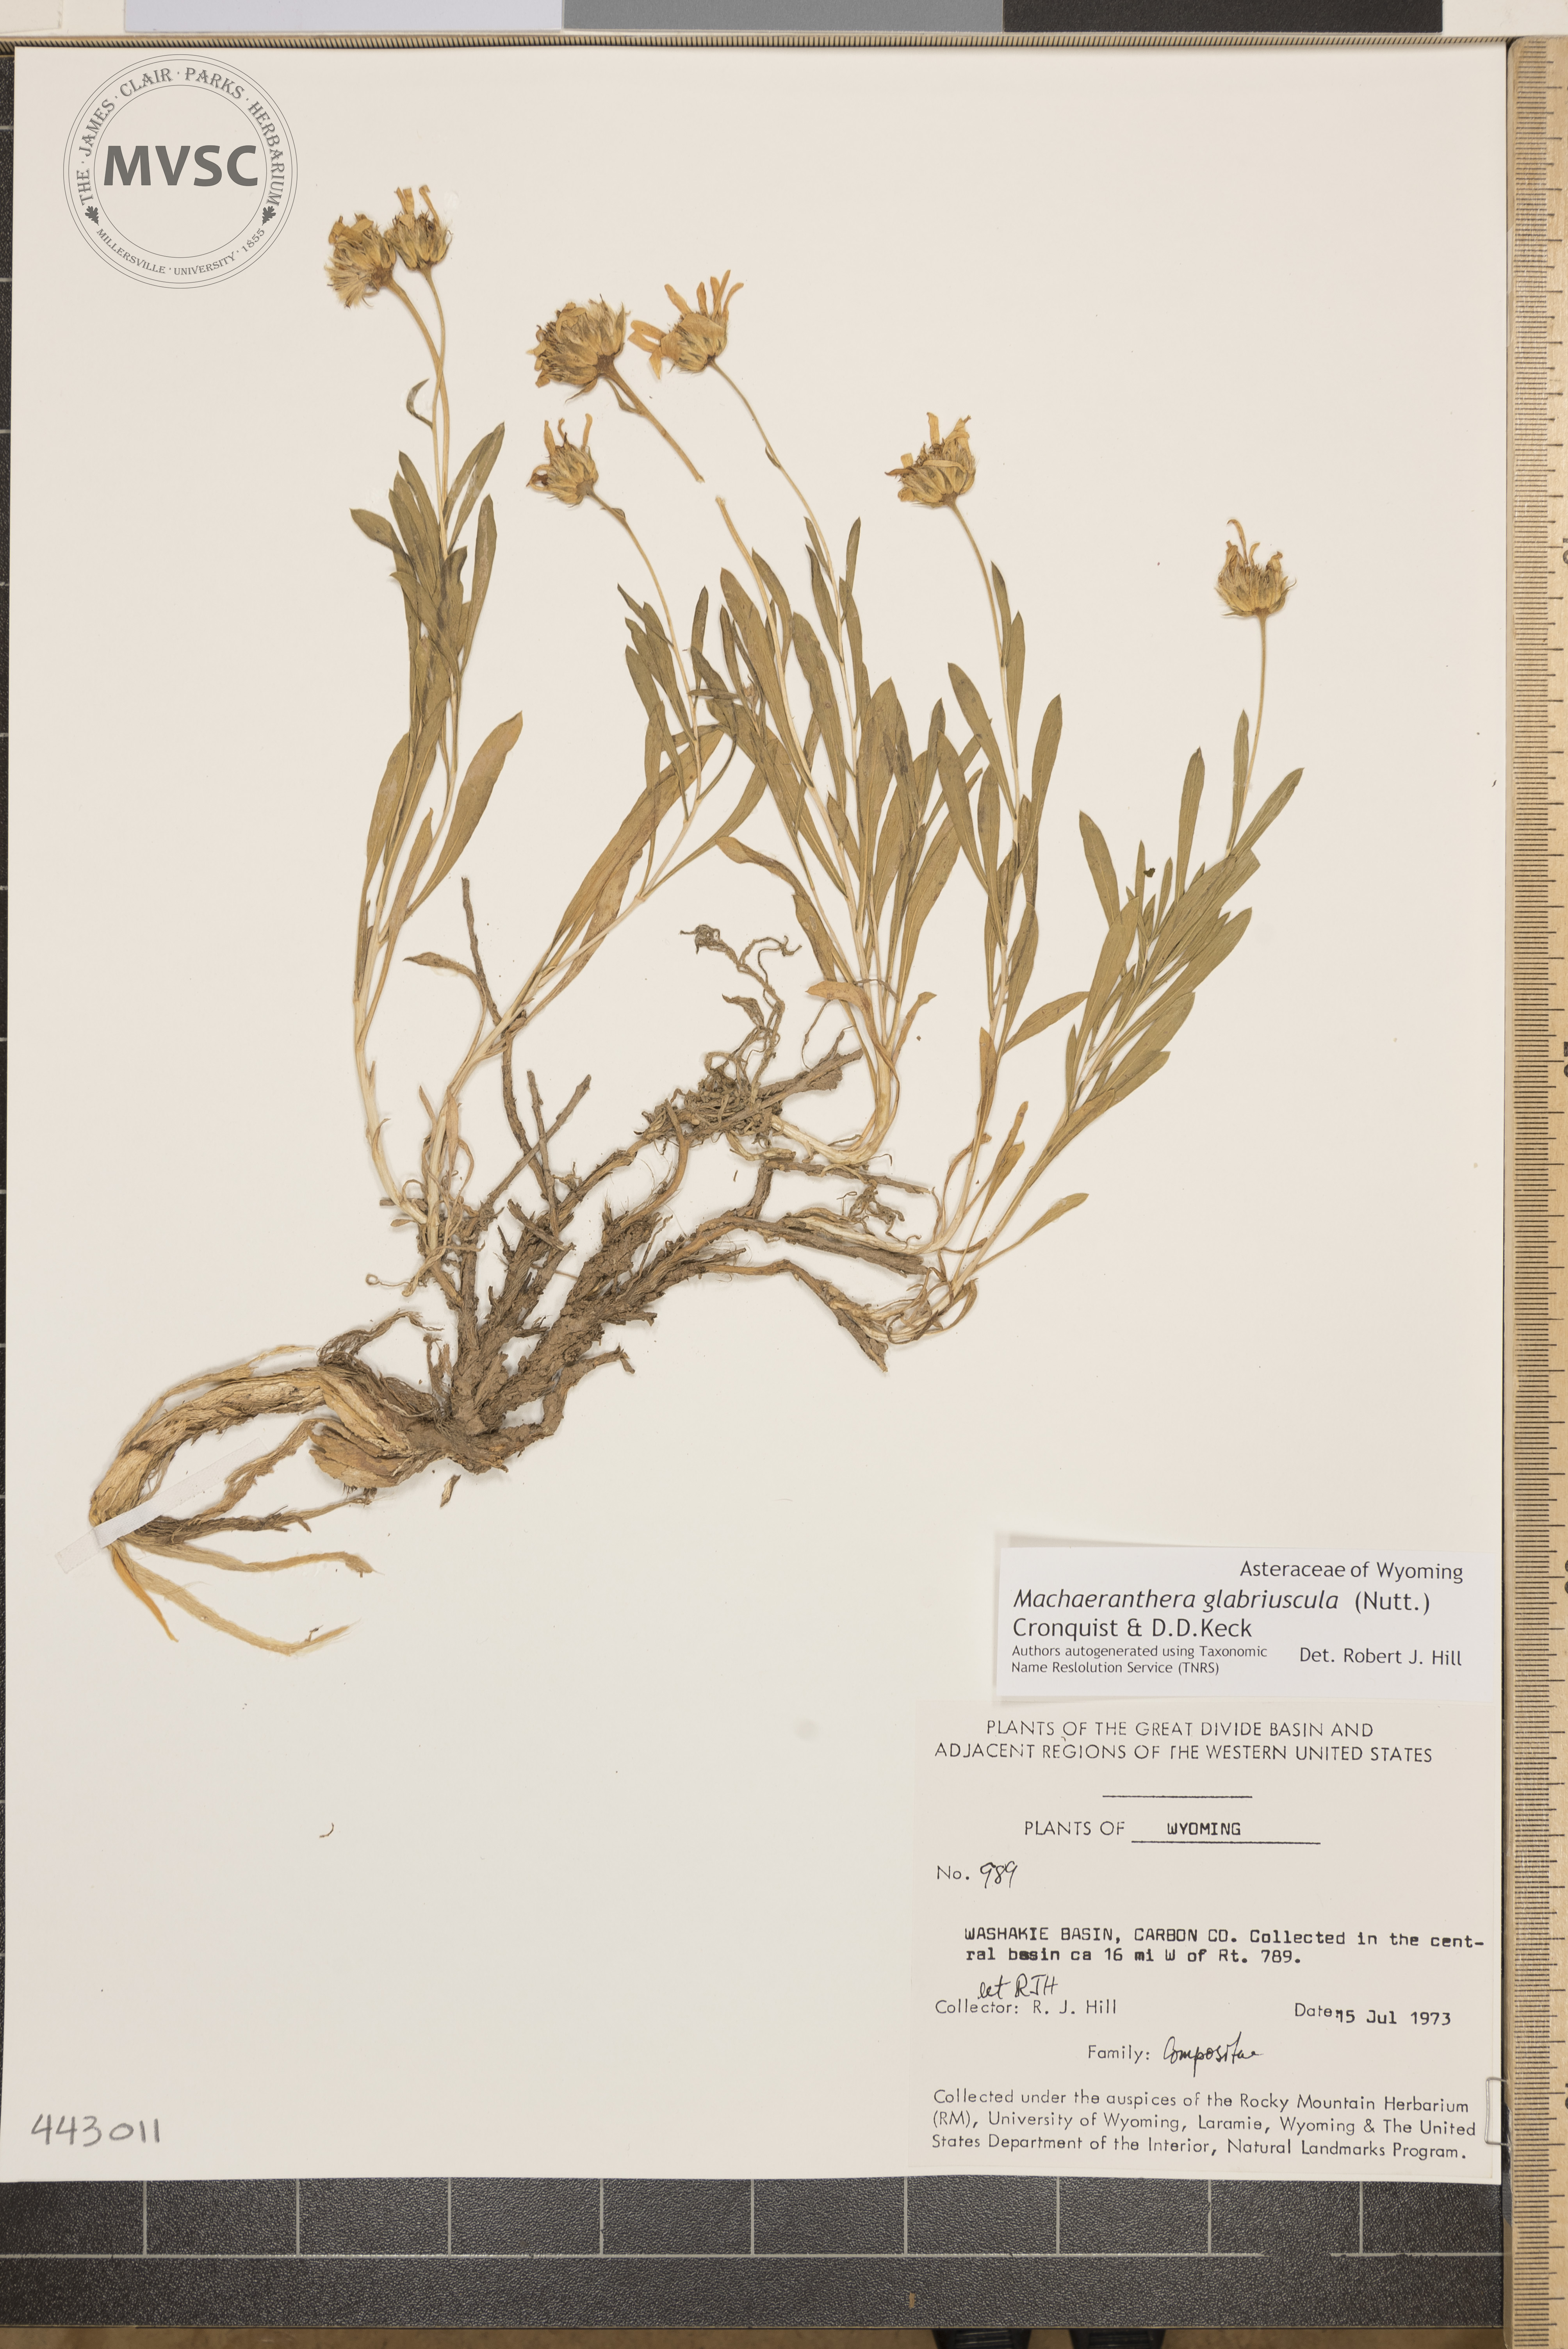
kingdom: Plantae
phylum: Tracheophyta
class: Magnoliopsida
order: Asterales
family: Asteraceae
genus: Xylorhiza
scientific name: Xylorhiza glabriuscula
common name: Smooth woody-aster
